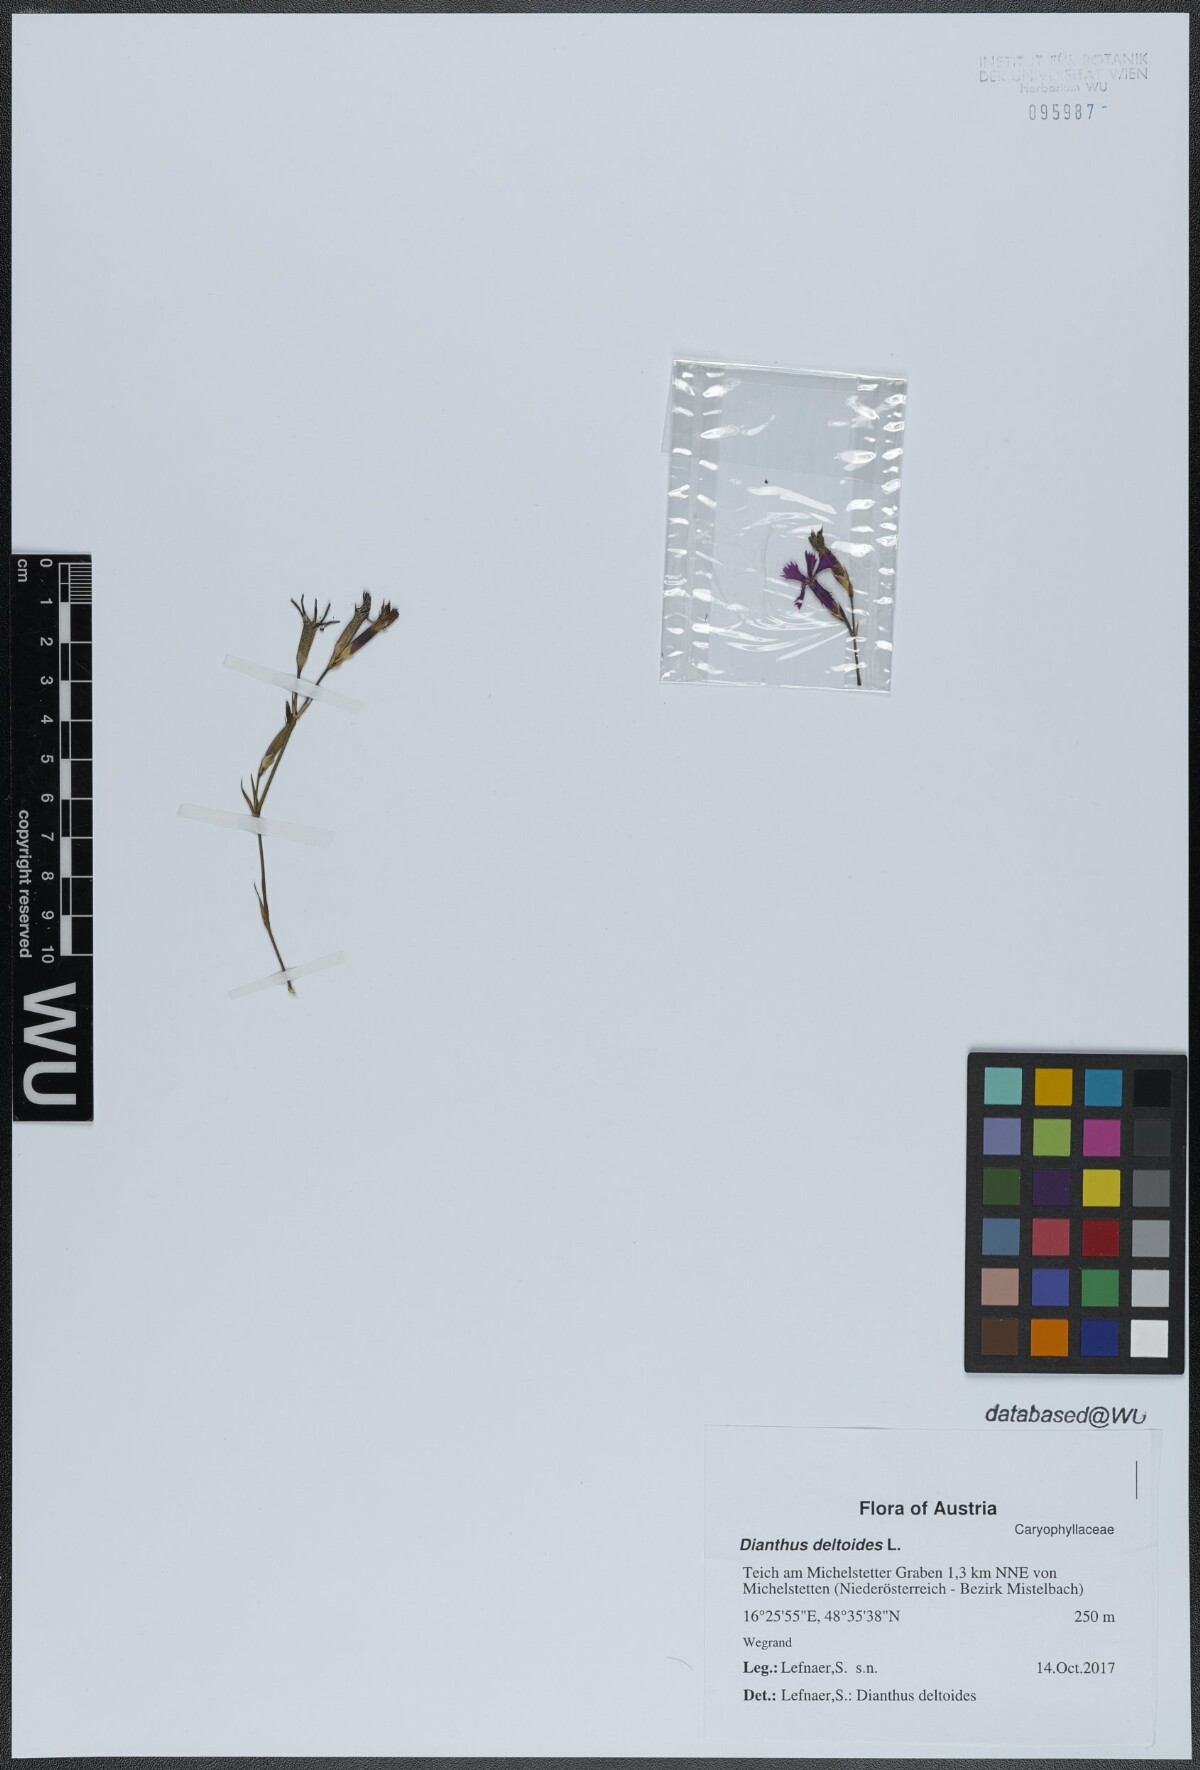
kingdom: Plantae
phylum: Tracheophyta
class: Magnoliopsida
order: Caryophyllales
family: Caryophyllaceae
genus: Dianthus
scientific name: Dianthus deltoides
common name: Maiden pink
